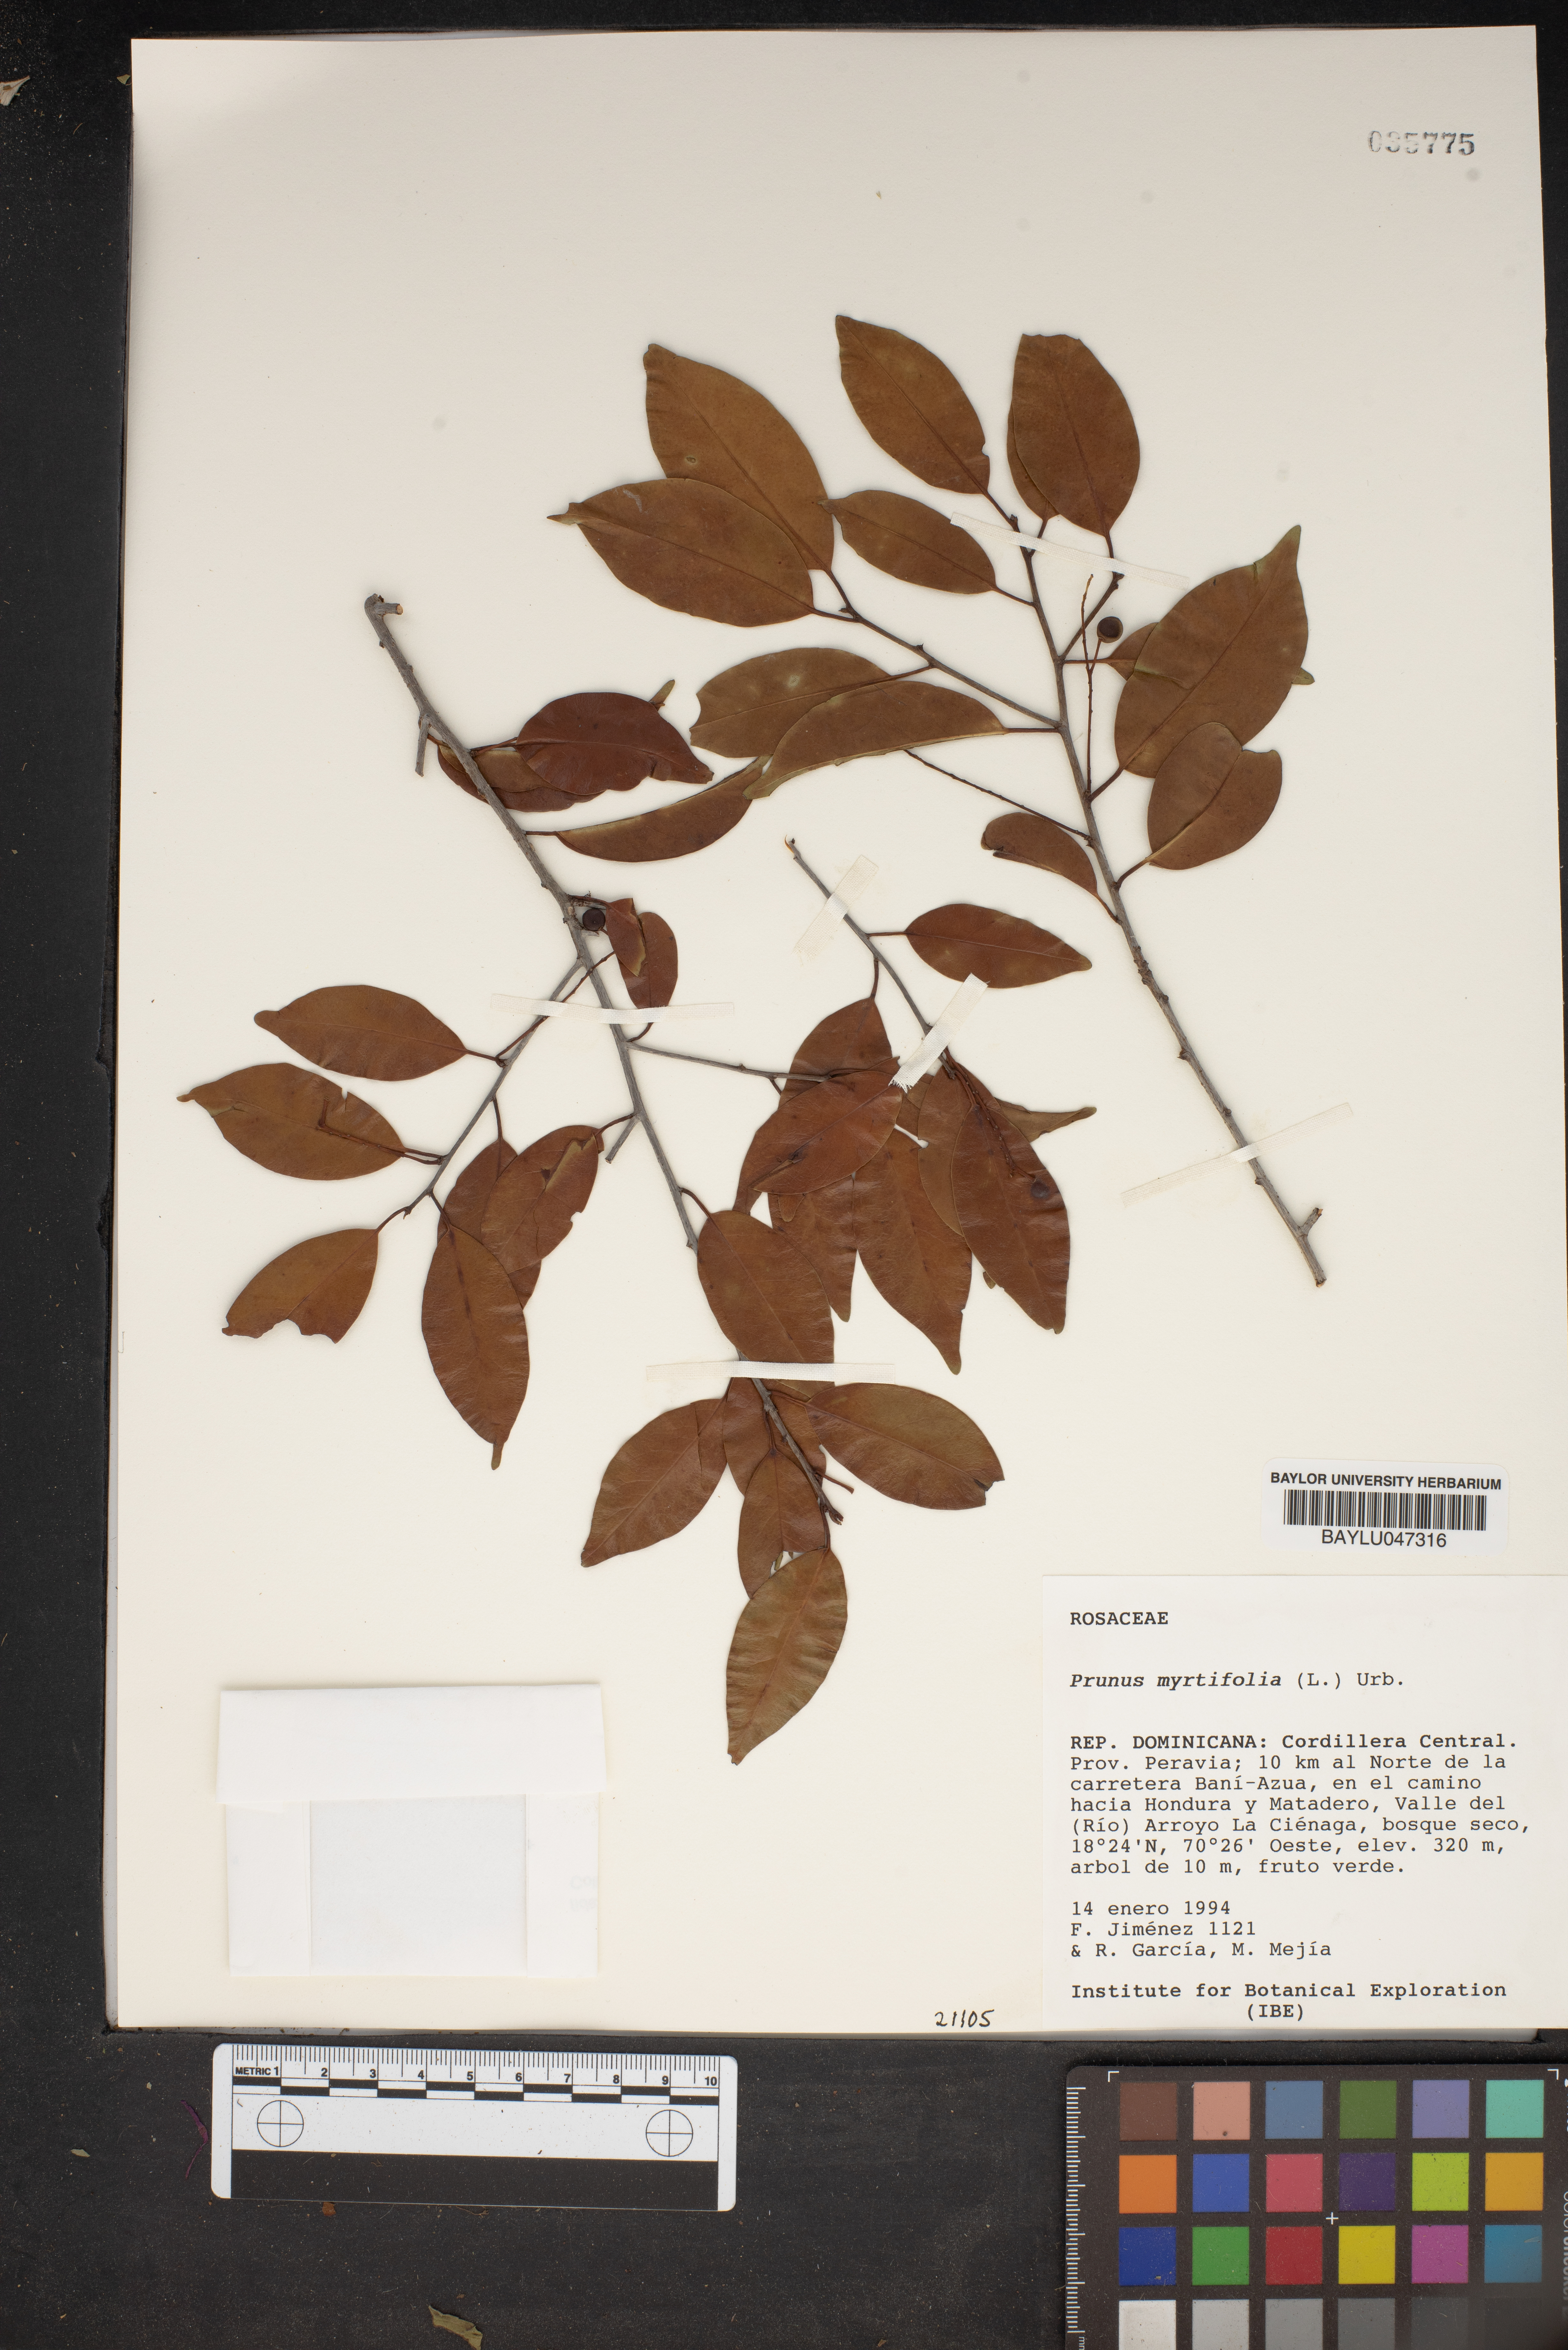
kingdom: Plantae
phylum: Tracheophyta
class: Magnoliopsida
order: Rosales
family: Rosaceae
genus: Prunus
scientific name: Prunus myrtifolia
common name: West indies cherry
